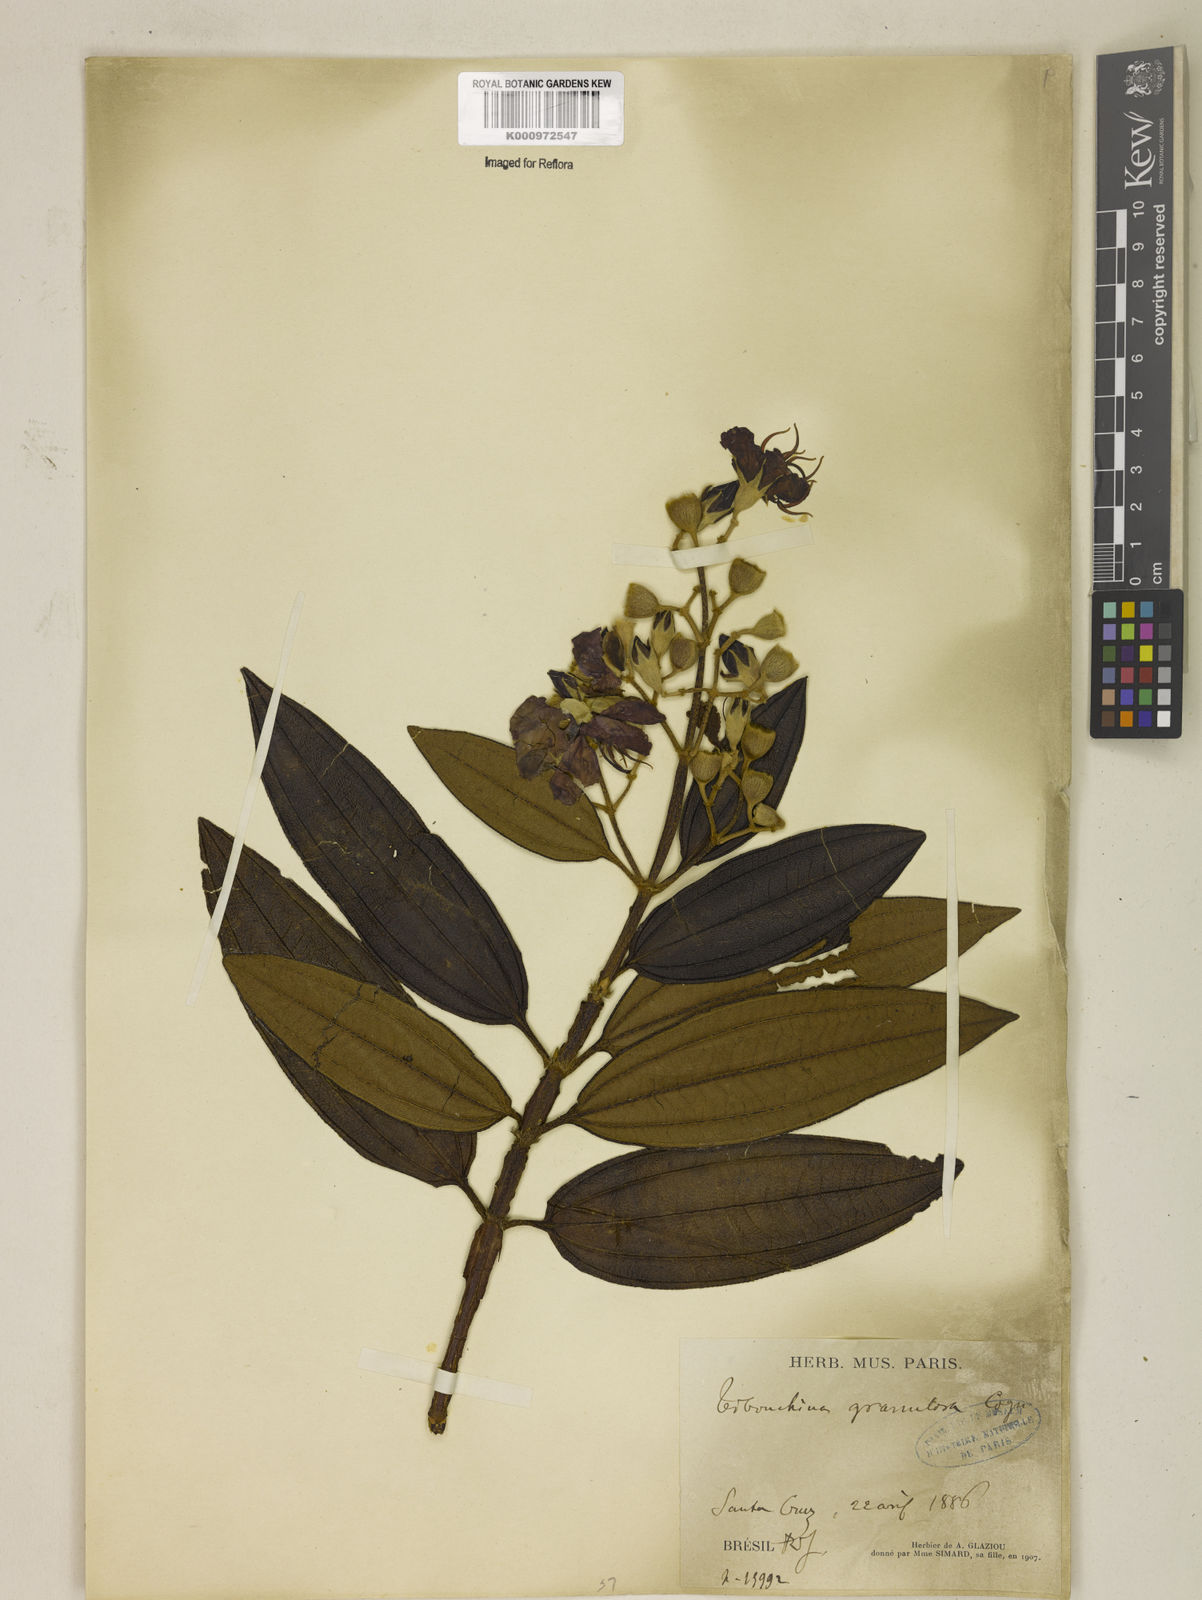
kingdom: Plantae
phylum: Tracheophyta
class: Magnoliopsida
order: Myrtales
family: Melastomataceae
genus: Pleroma
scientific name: Pleroma granulosum
